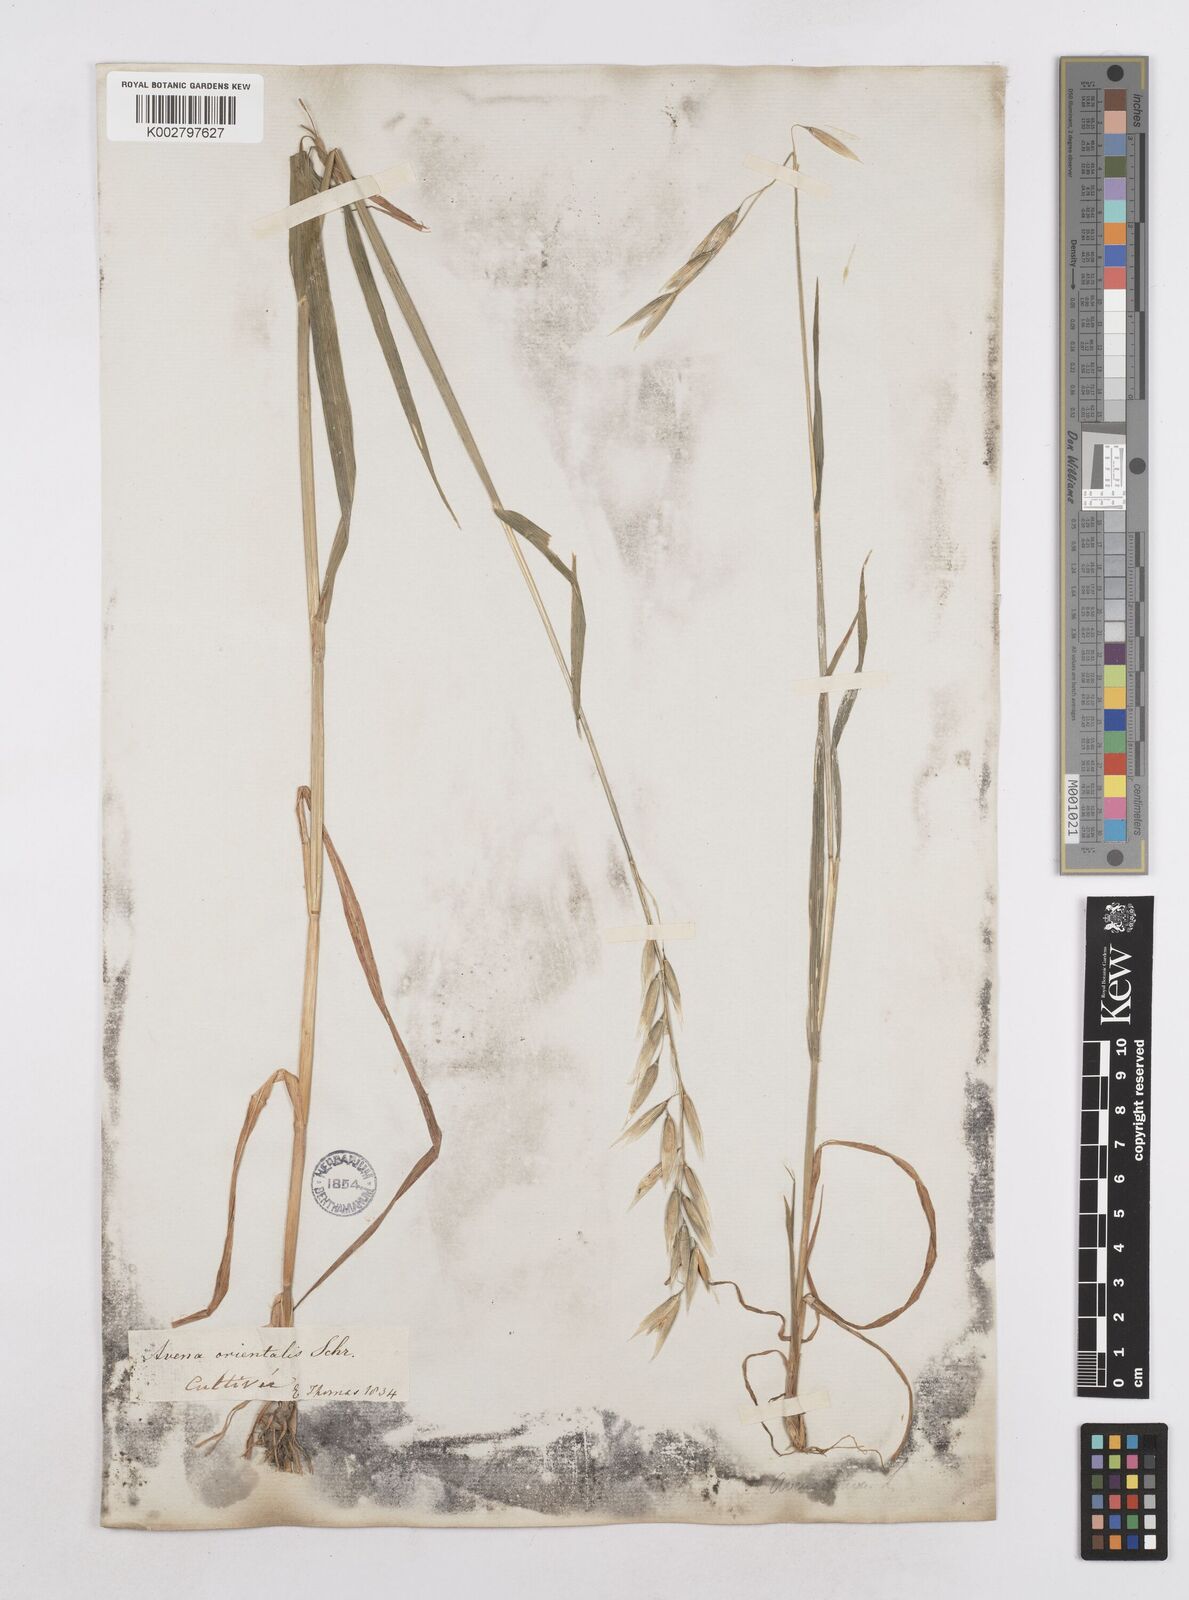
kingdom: Plantae
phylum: Tracheophyta
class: Liliopsida
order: Poales
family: Poaceae
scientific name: Poaceae
